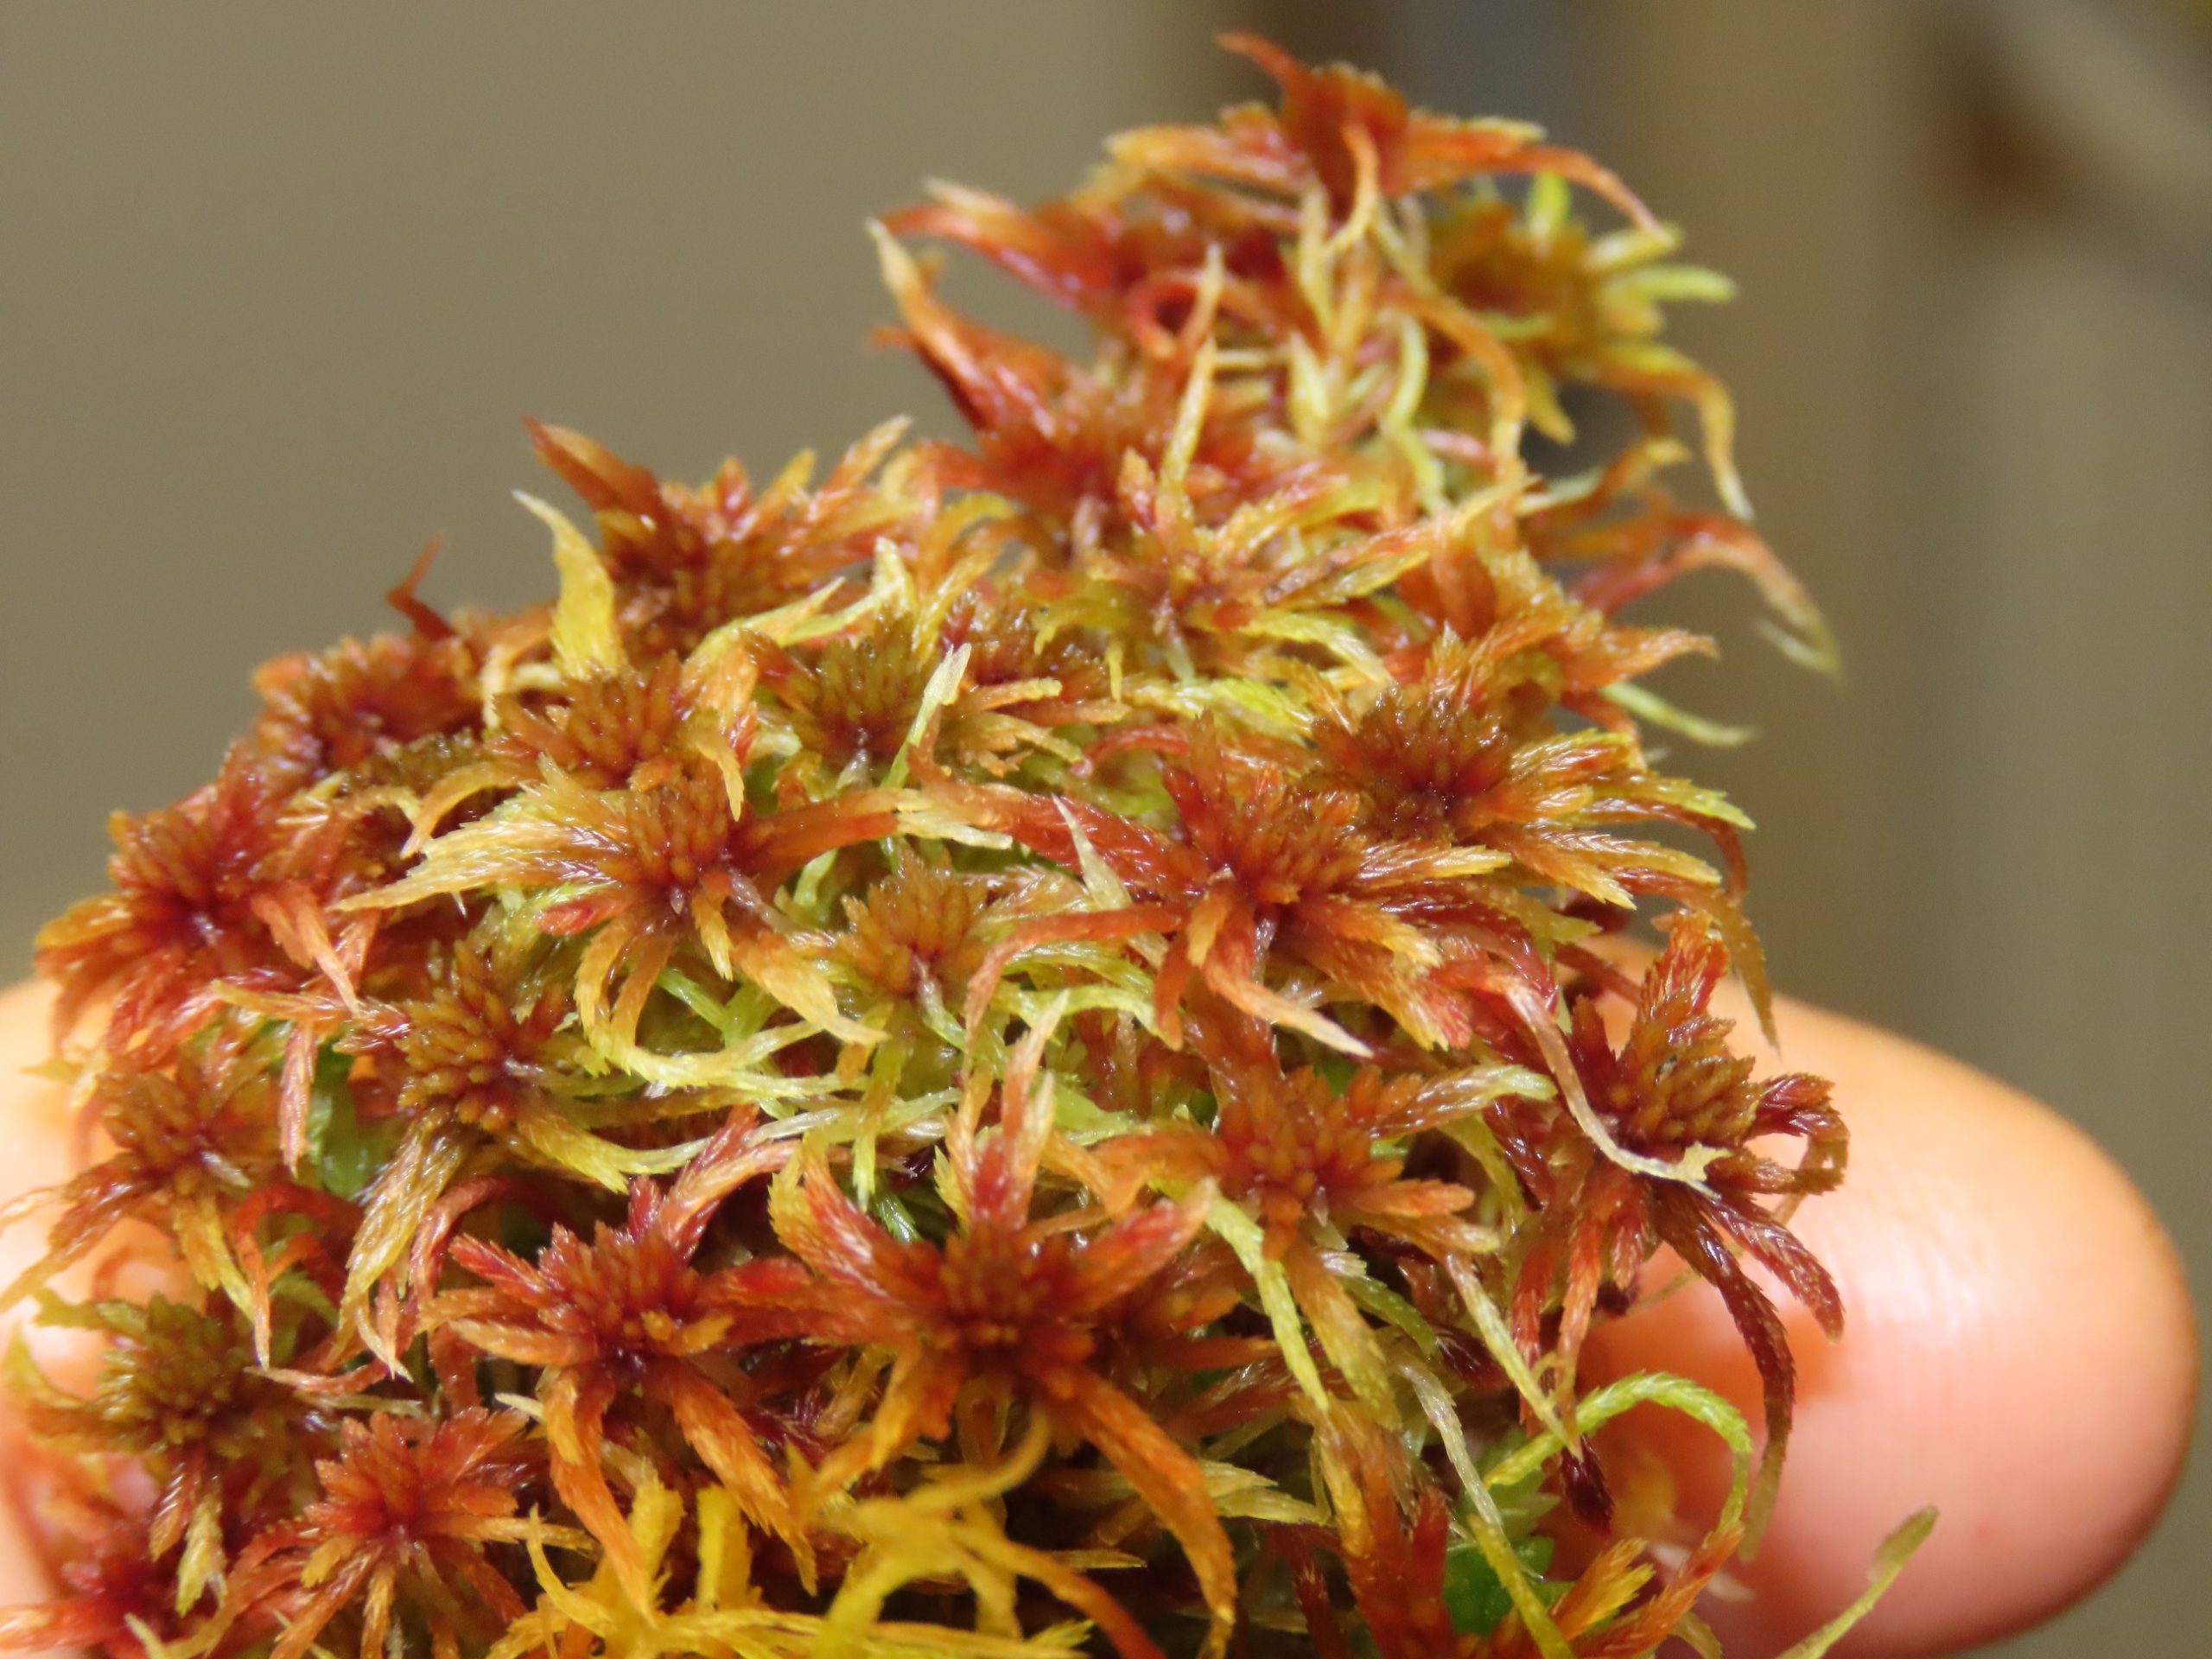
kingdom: Plantae
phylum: Bryophyta
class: Sphagnopsida
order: Sphagnales
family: Sphagnaceae
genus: Sphagnum
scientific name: Sphagnum russowii
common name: Spraglet tørvemos
